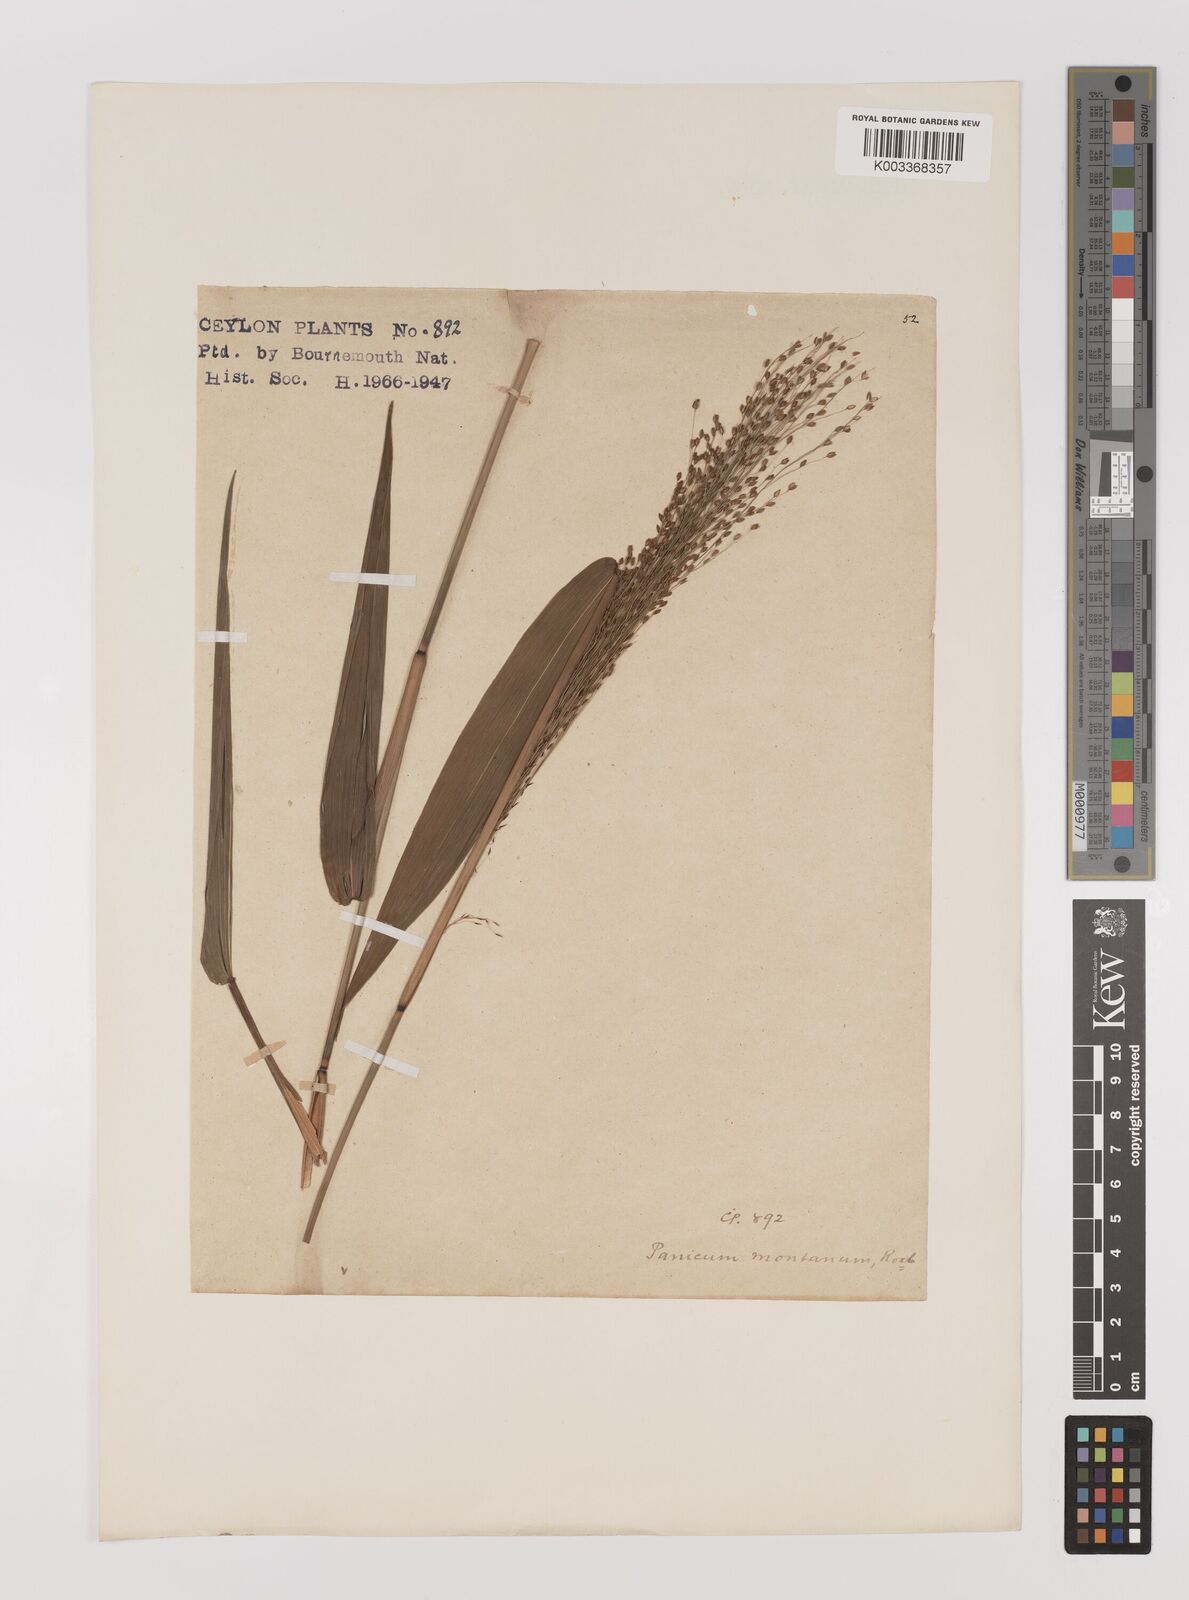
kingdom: Plantae
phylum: Tracheophyta
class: Liliopsida
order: Poales
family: Poaceae
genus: Panicum
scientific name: Panicum notatum
